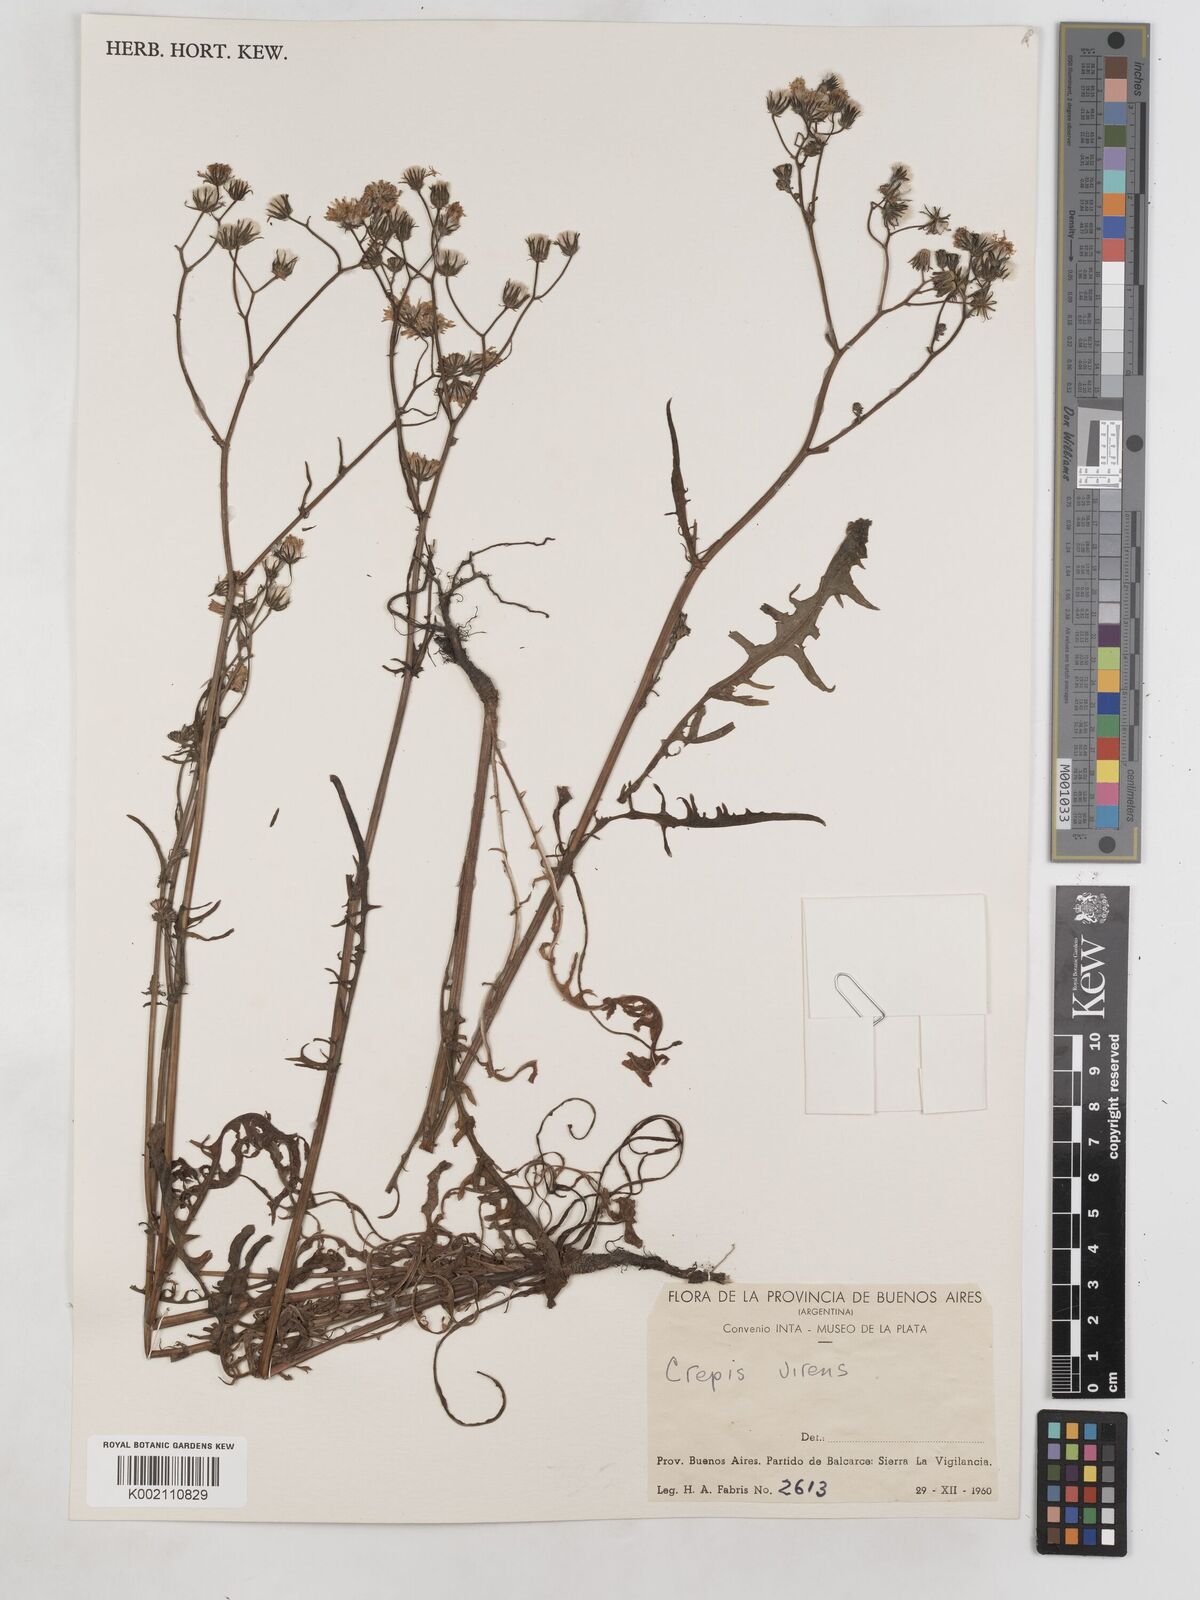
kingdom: Plantae
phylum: Tracheophyta
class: Magnoliopsida
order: Asterales
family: Asteraceae
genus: Crepis
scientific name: Crepis capillaris
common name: Smooth hawksbeard
